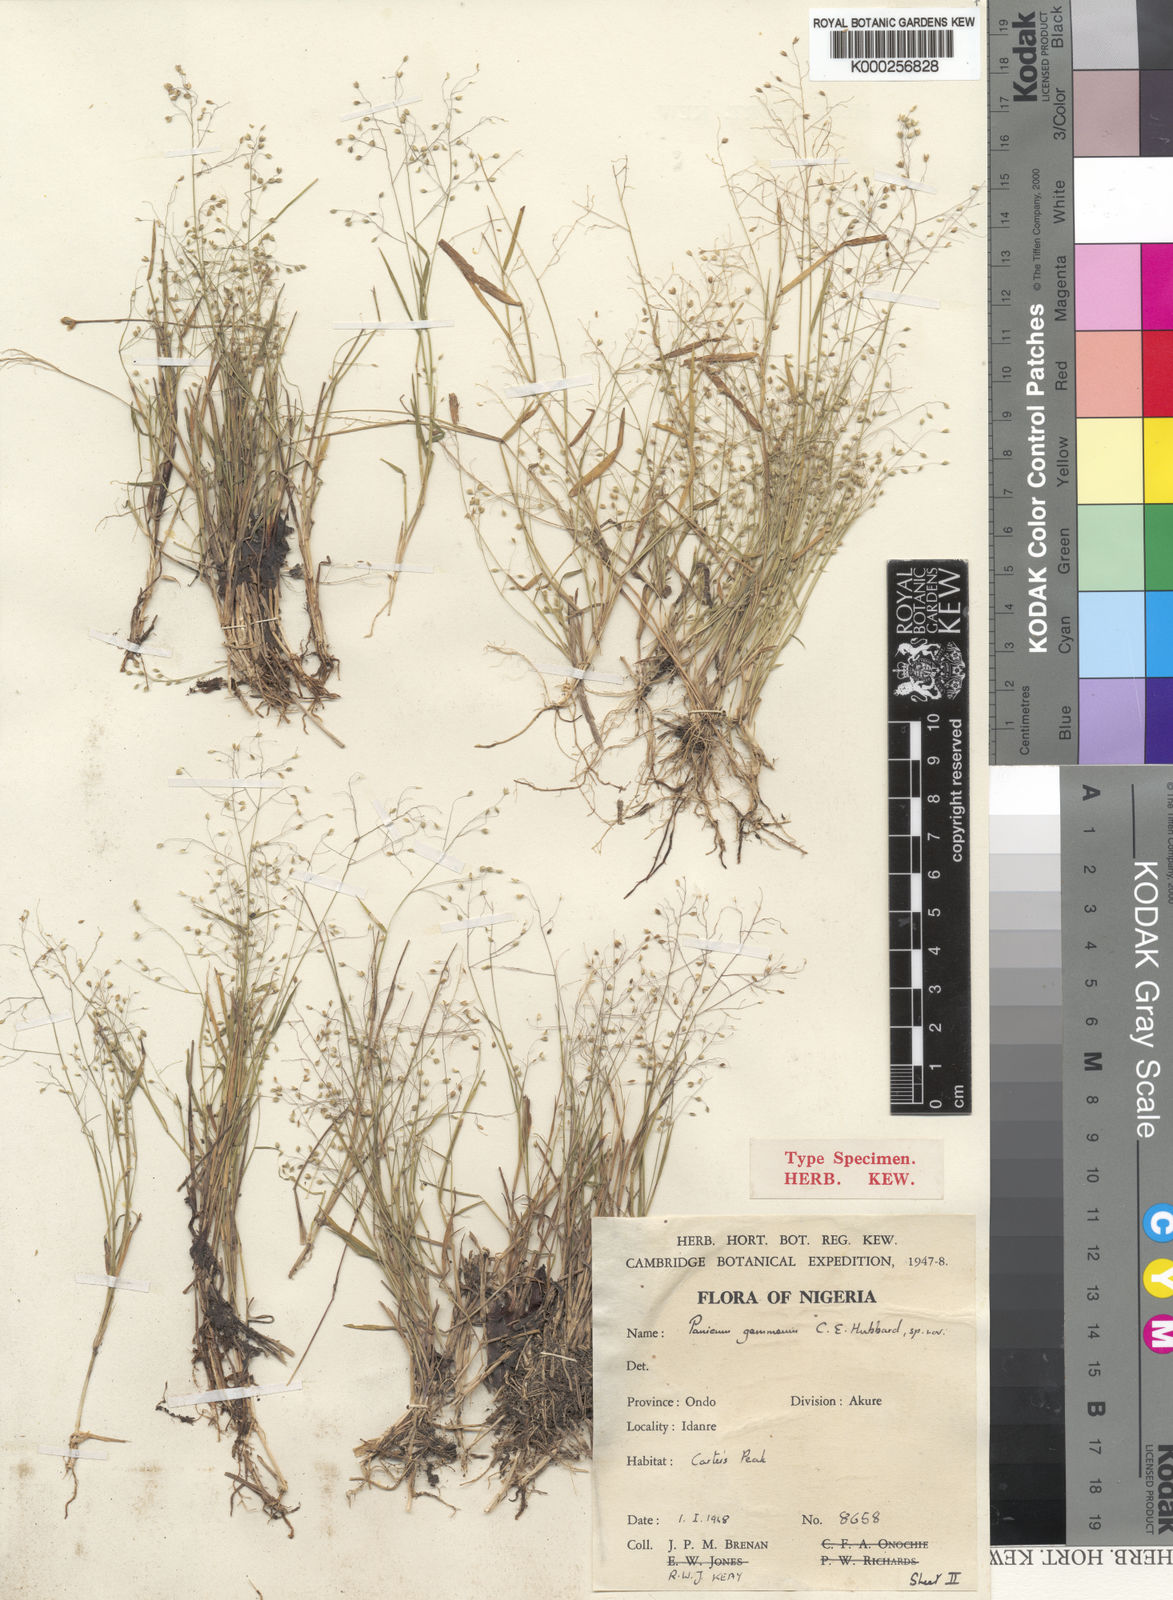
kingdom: Plantae
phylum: Tracheophyta
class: Liliopsida
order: Poales
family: Poaceae
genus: Panicum
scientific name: Panicum curviflorum
